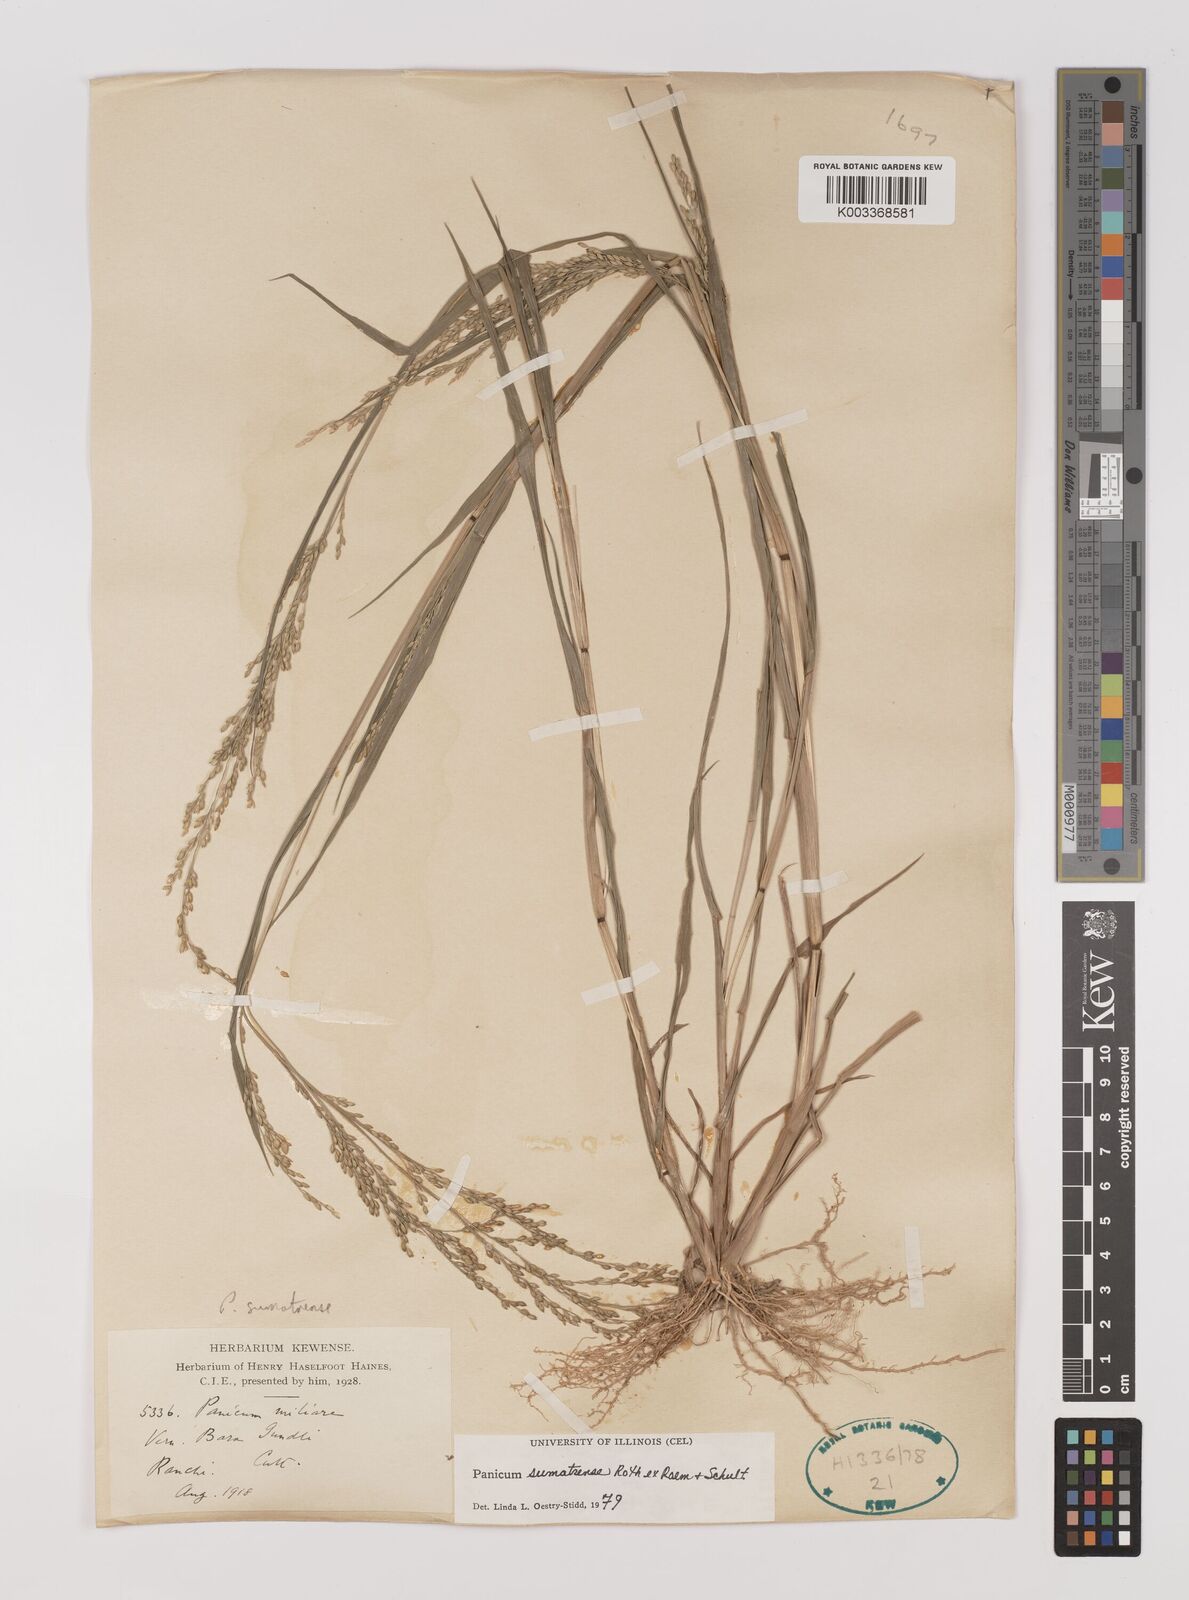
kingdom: Plantae
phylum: Tracheophyta
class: Liliopsida
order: Poales
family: Poaceae
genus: Panicum
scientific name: Panicum sumatrense
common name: Little millet
